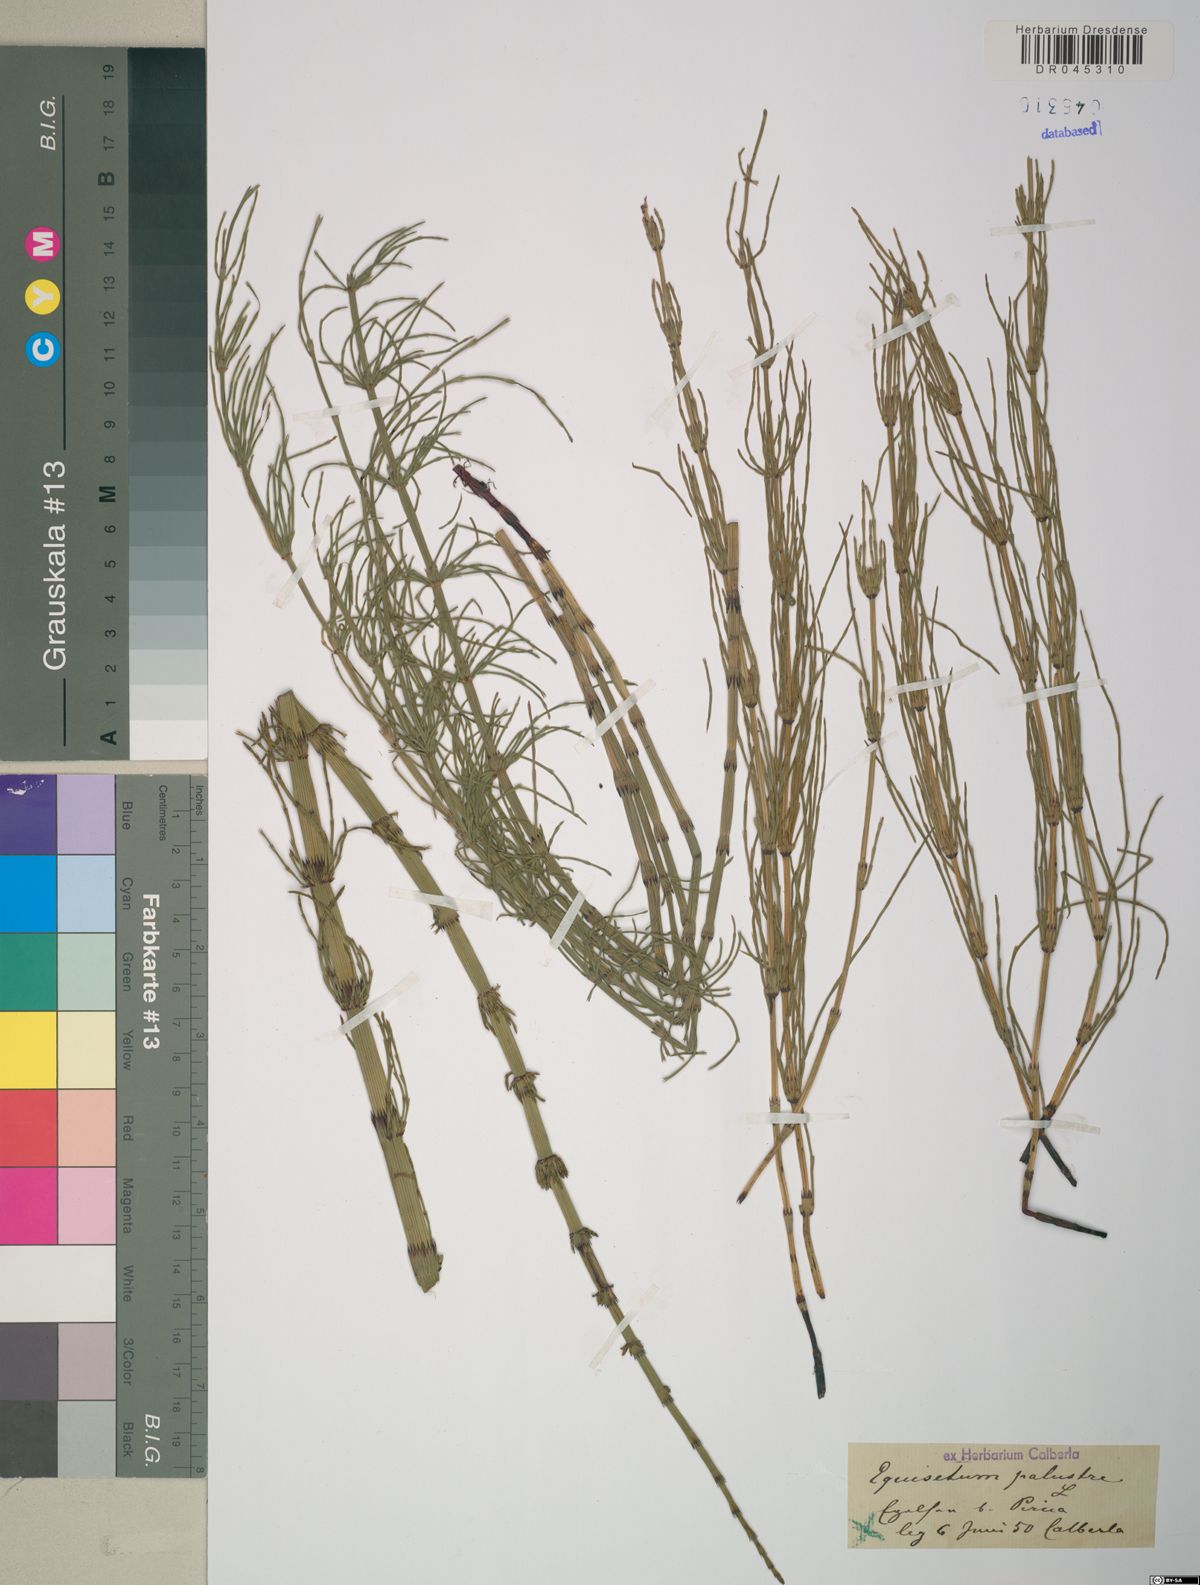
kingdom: Plantae
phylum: Tracheophyta
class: Polypodiopsida
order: Equisetales
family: Equisetaceae
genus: Equisetum
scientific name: Equisetum palustre
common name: Marsh horsetail
